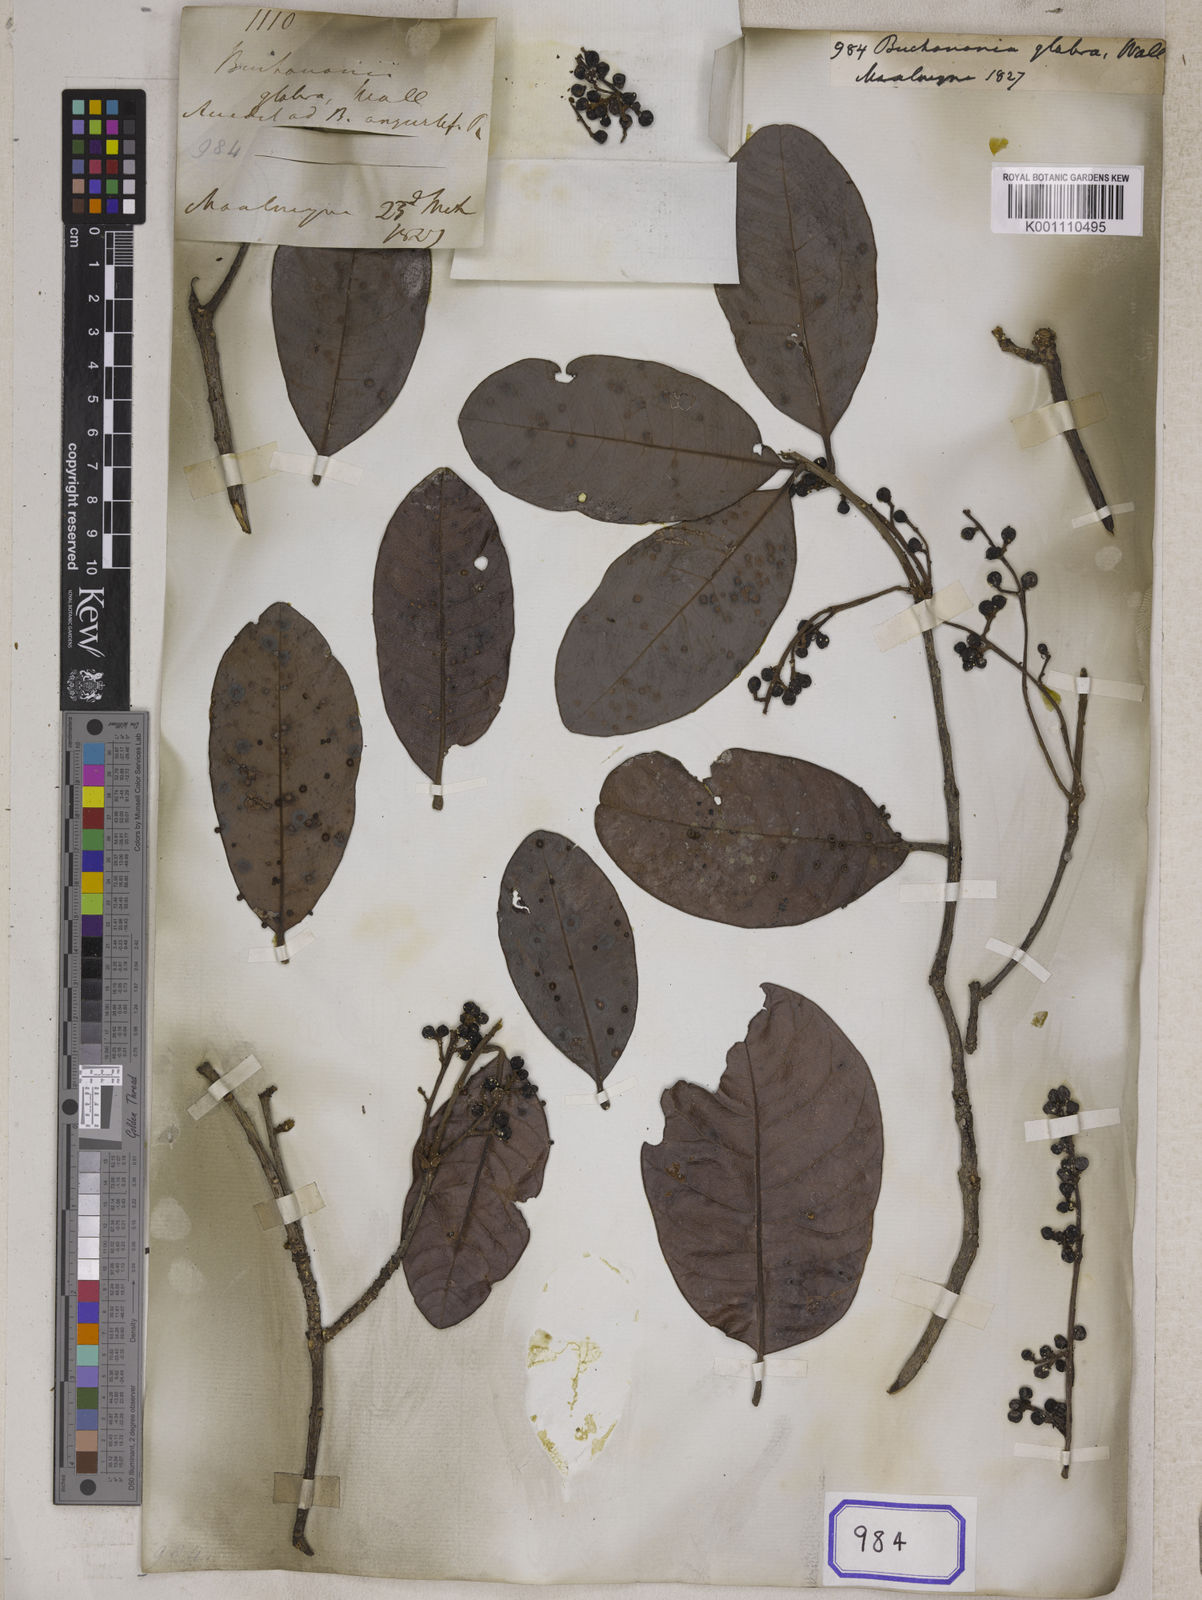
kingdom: Plantae
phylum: Tracheophyta
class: Magnoliopsida
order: Sapindales
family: Anacardiaceae
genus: Buchanania
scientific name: Buchanania
